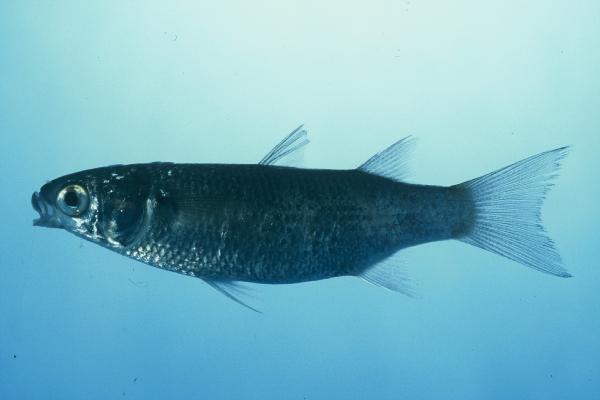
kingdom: Animalia
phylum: Chordata
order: Mugiliformes
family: Mugilidae
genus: Crenimugil
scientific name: Crenimugil seheli
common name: Bluespot mullet
